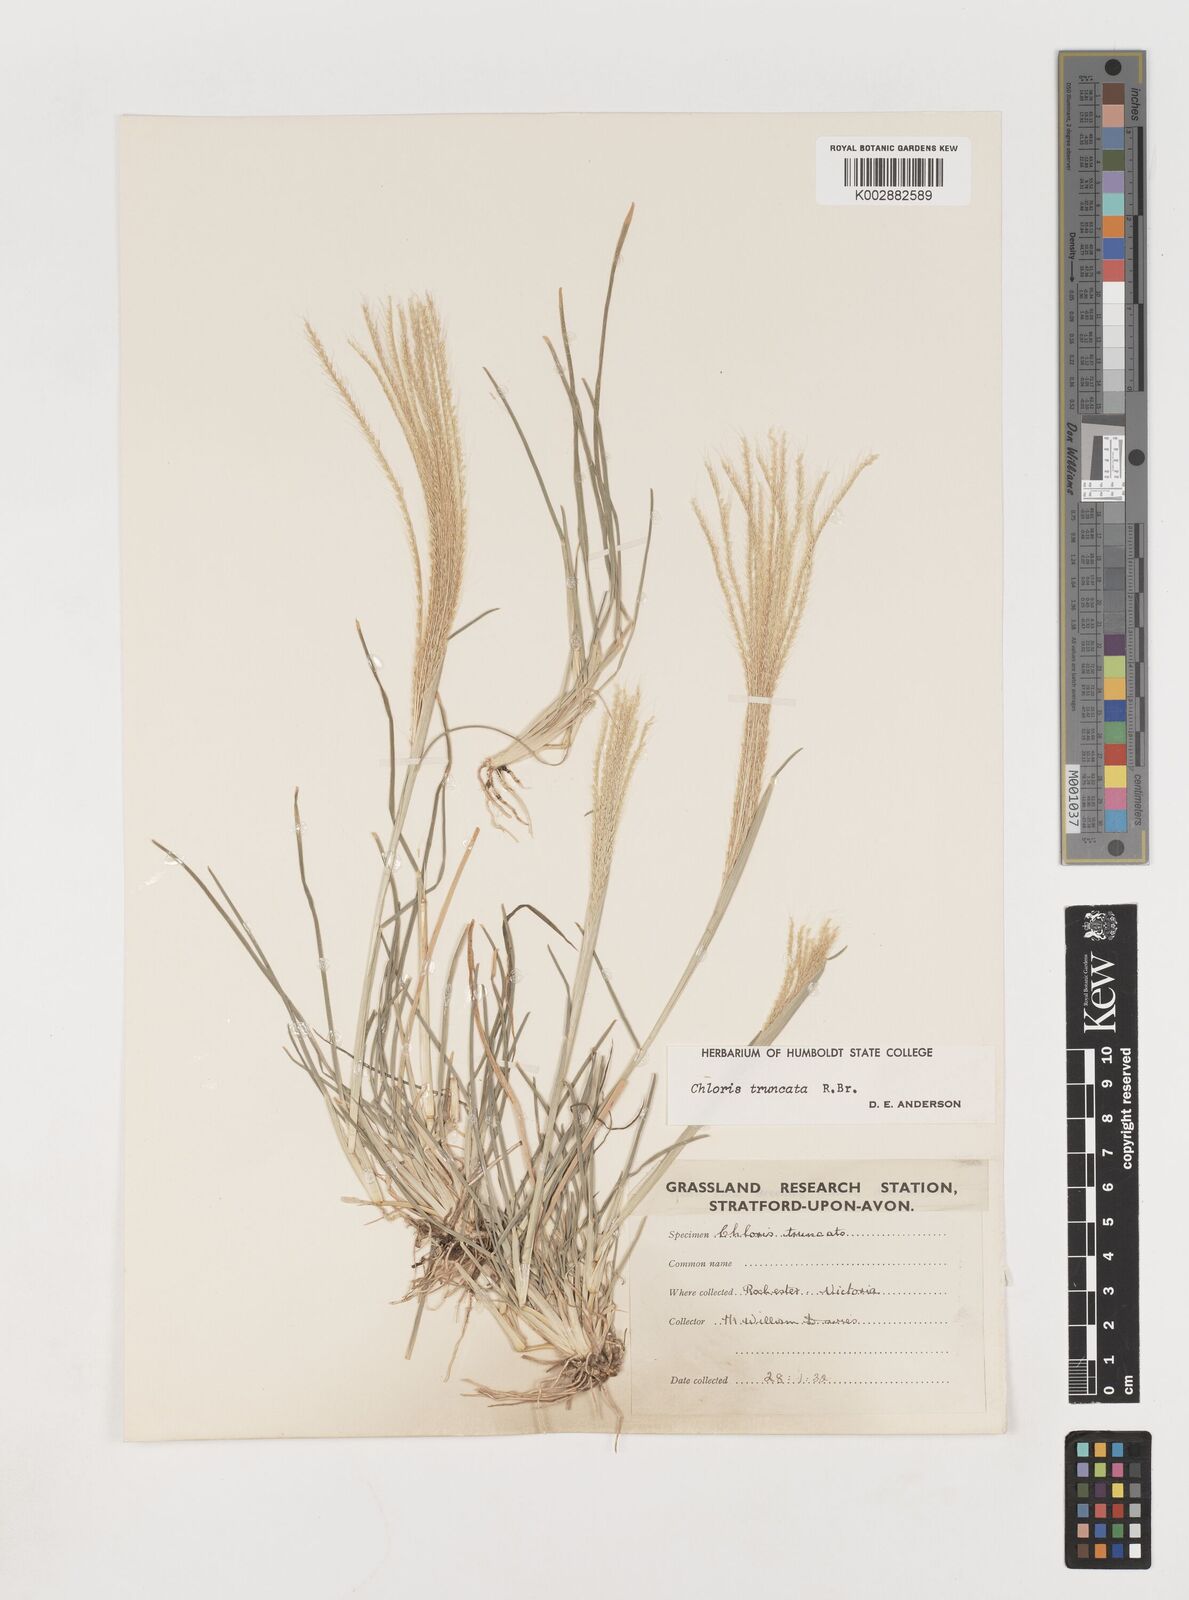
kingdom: Plantae
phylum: Tracheophyta
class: Liliopsida
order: Poales
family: Poaceae
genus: Chloris
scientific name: Chloris truncata
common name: Windmill-grass
